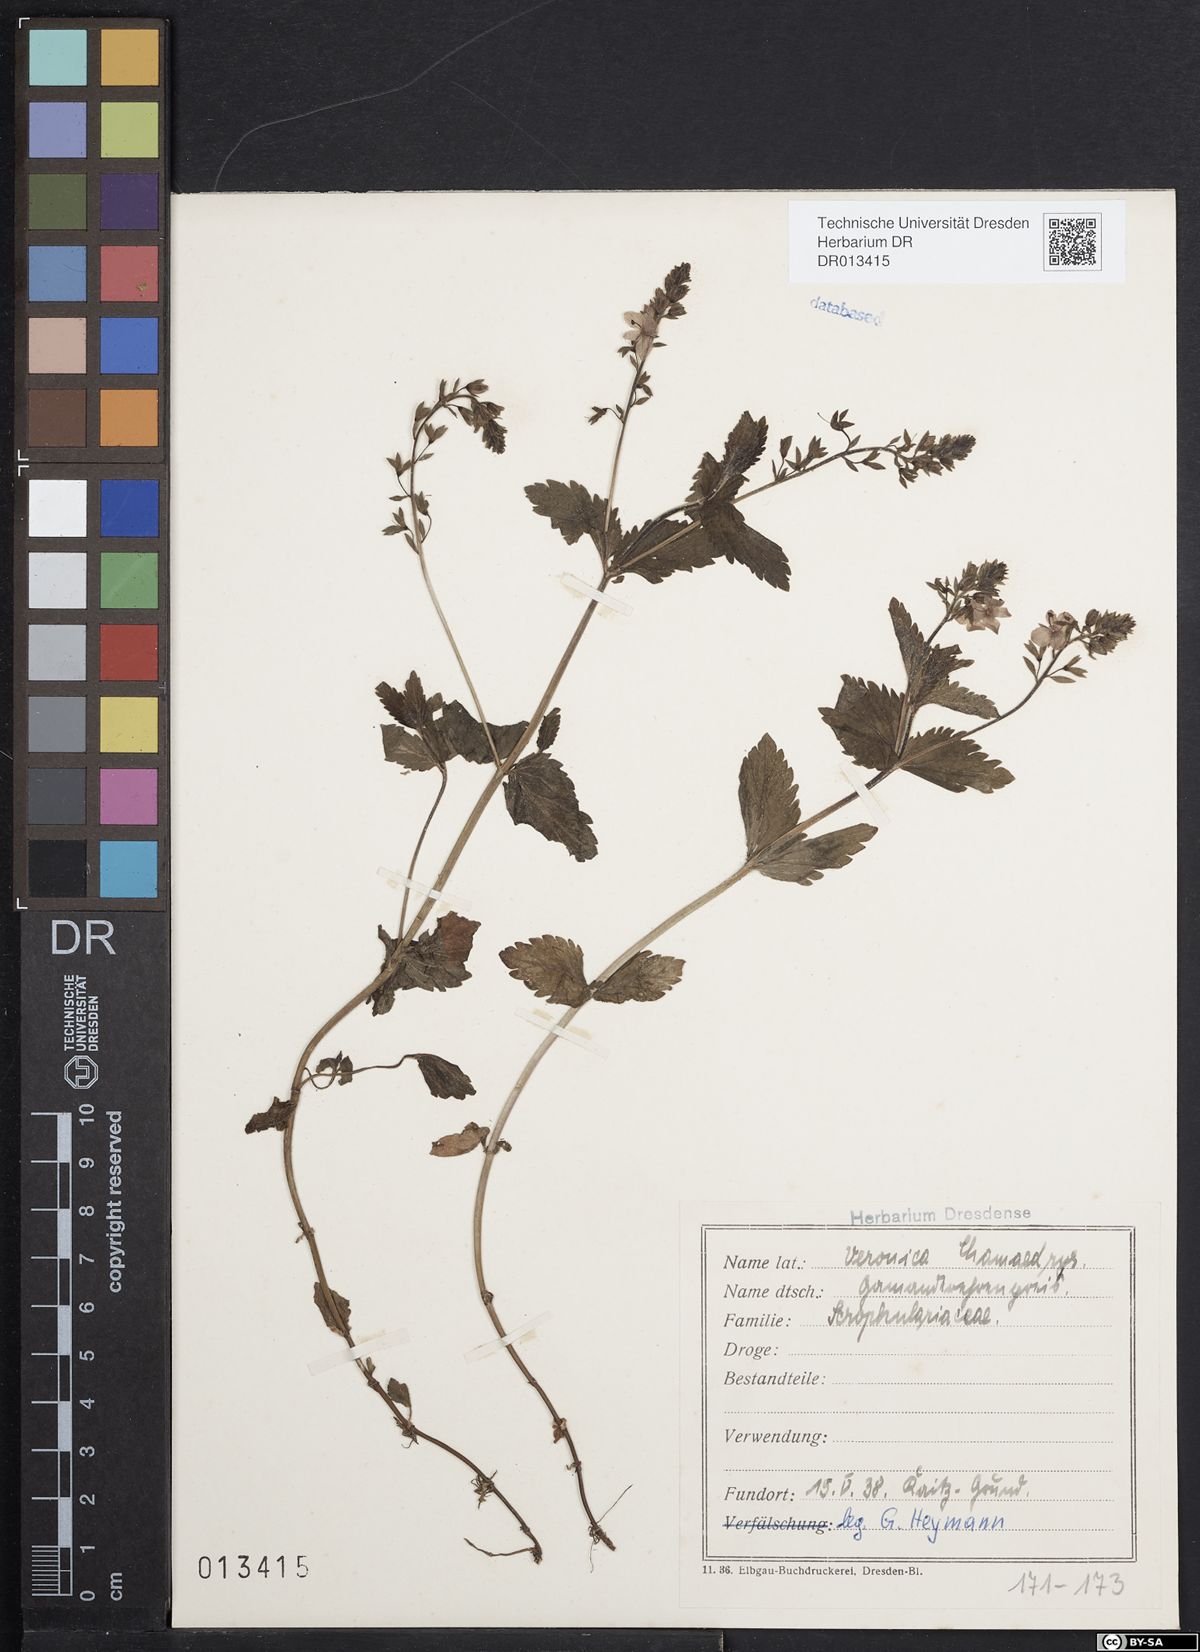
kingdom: Plantae
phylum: Tracheophyta
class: Magnoliopsida
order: Lamiales
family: Plantaginaceae
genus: Veronica
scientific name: Veronica chamaedrys
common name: Germander speedwell
